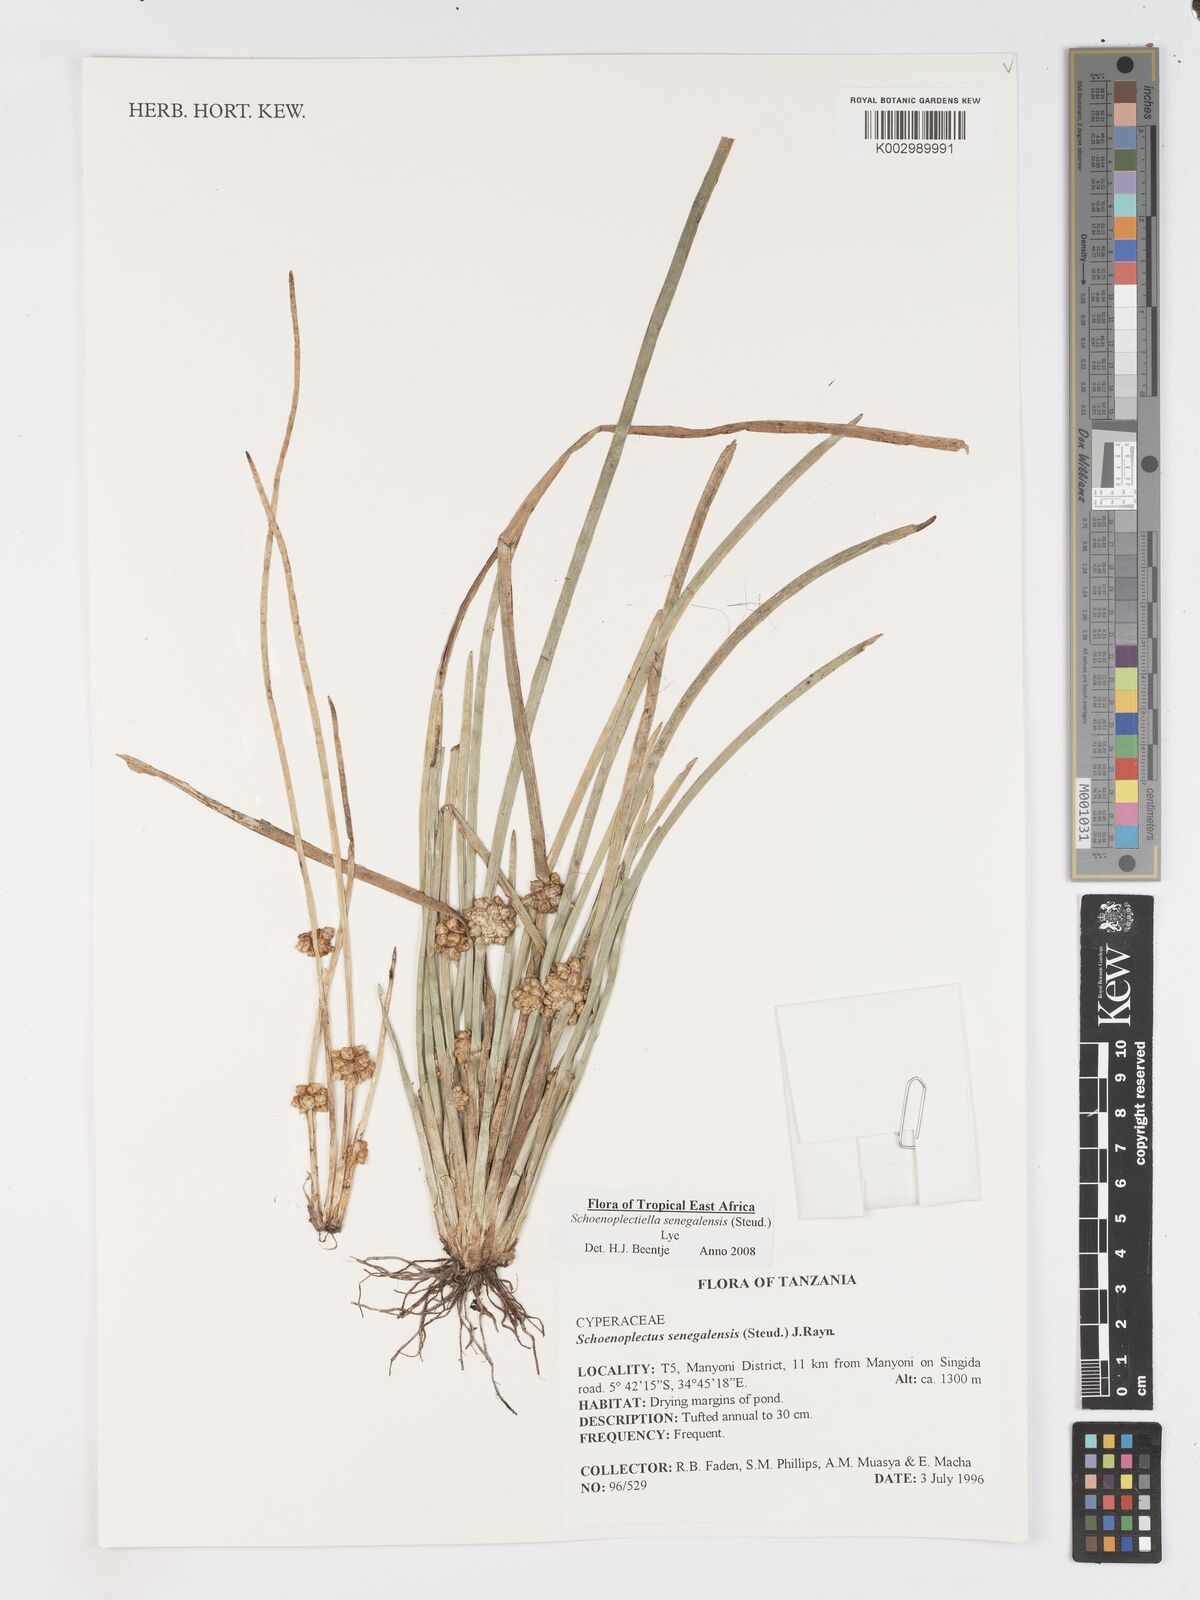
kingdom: Plantae
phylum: Tracheophyta
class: Liliopsida
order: Poales
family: Cyperaceae
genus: Schoenoplectiella
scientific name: Schoenoplectiella senegalensis
